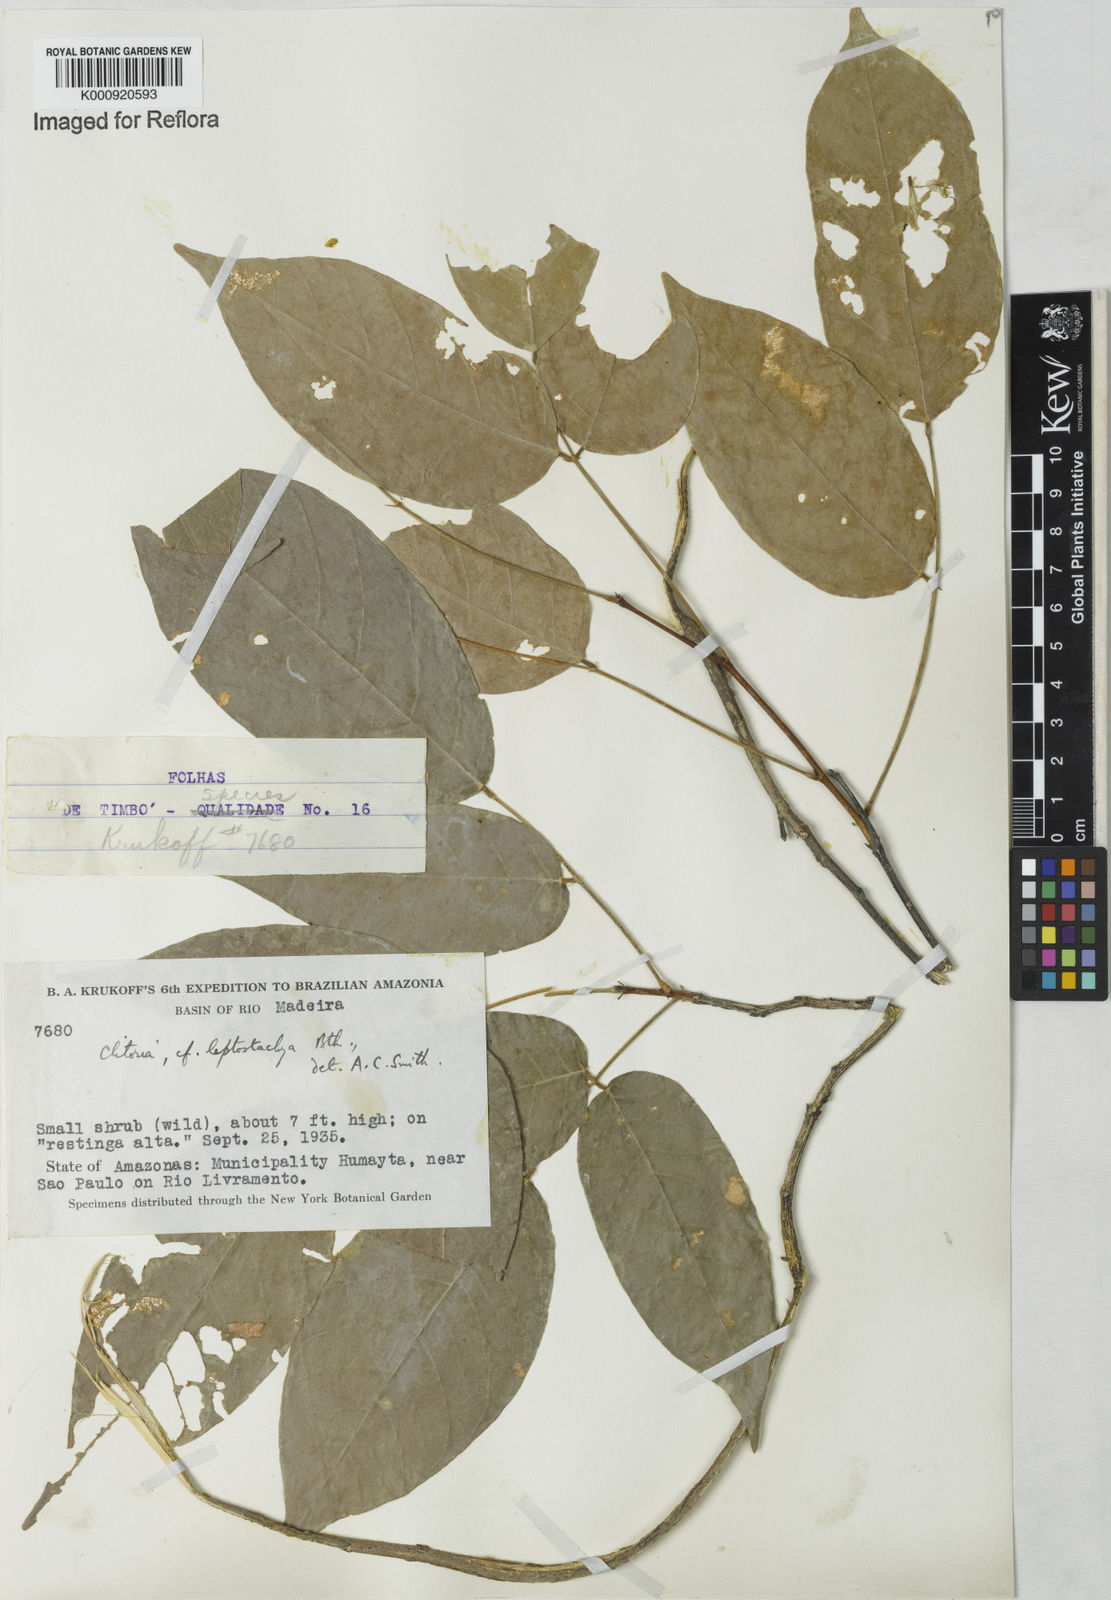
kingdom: Plantae
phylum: Tracheophyta
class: Magnoliopsida
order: Fabales
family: Fabaceae
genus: Clitoria
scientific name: Clitoria leptostachya
